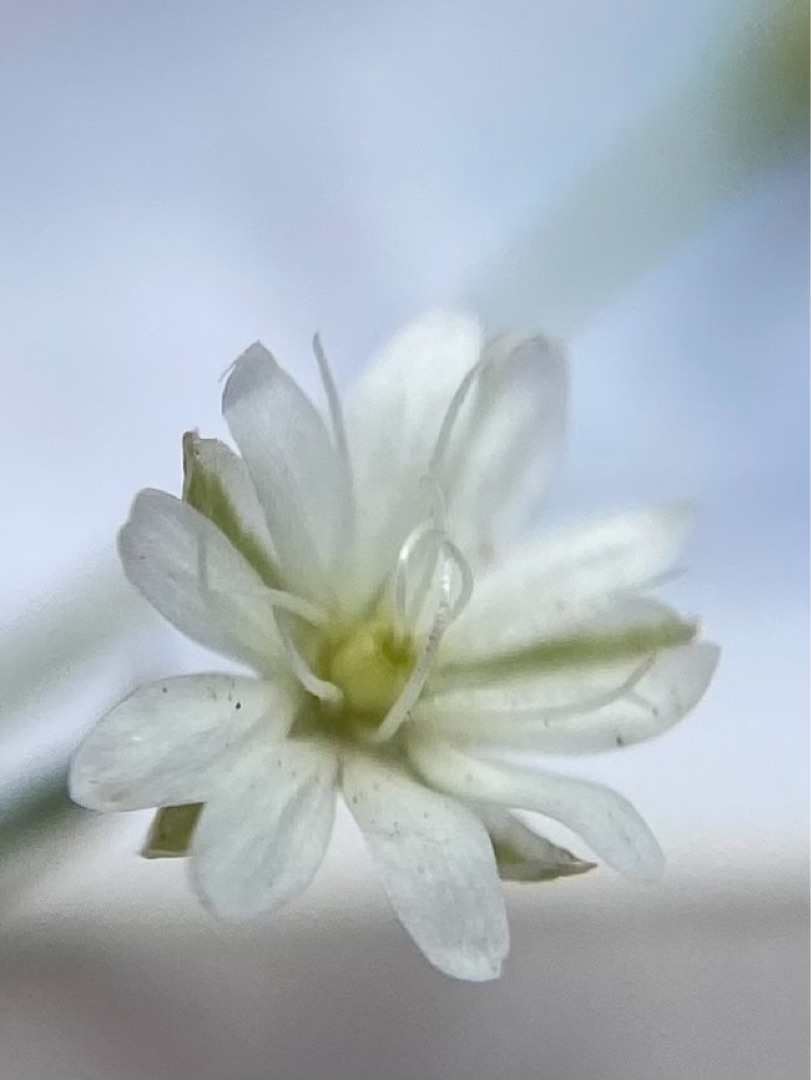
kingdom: Plantae
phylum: Tracheophyta
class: Magnoliopsida
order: Caryophyllales
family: Caryophyllaceae
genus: Stellaria
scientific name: Stellaria graminea
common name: Græsbladet fladstjerne
